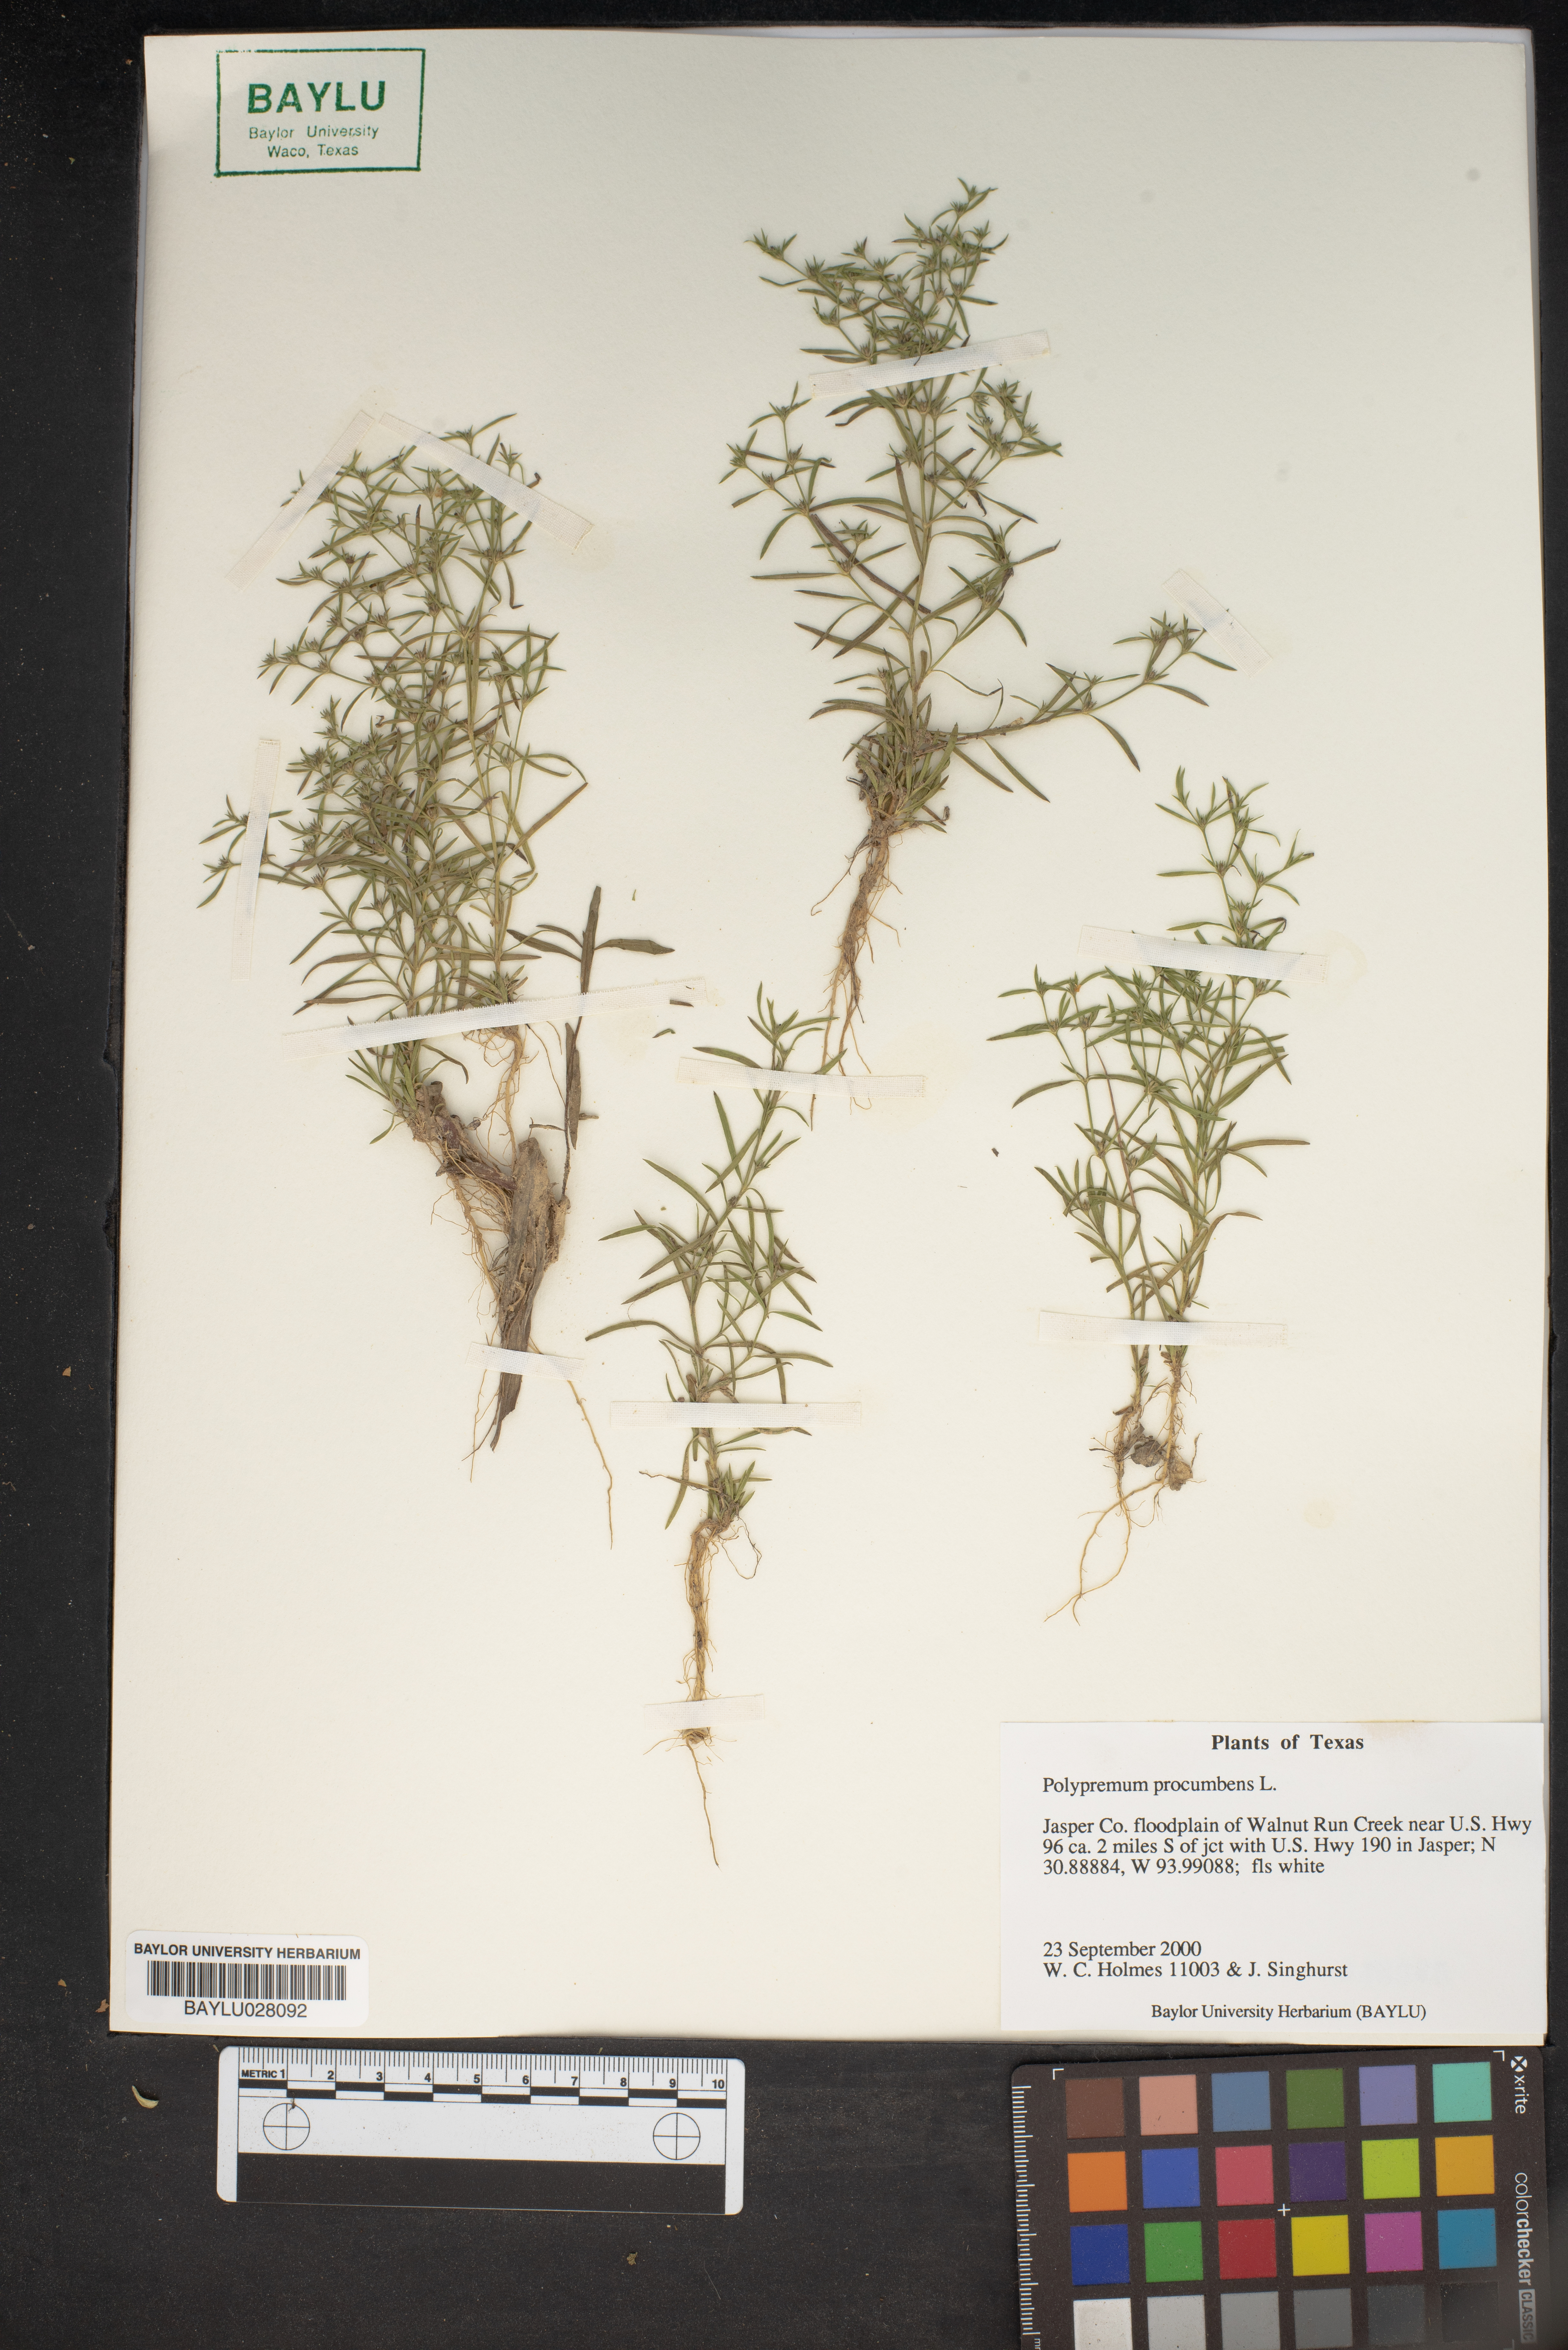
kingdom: Plantae
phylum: Tracheophyta
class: Magnoliopsida
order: Lamiales
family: Tetrachondraceae
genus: Polypremum
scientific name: Polypremum procumbens
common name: Juniper-leaf
